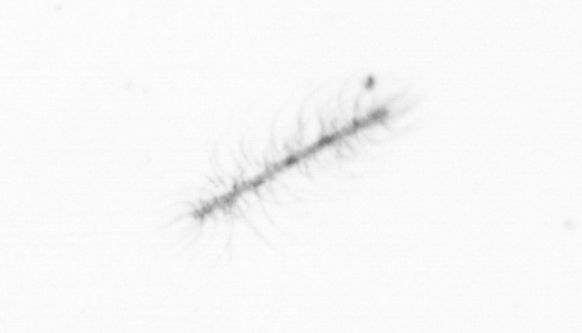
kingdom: Chromista
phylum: Ochrophyta
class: Bacillariophyceae
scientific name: Bacillariophyceae
